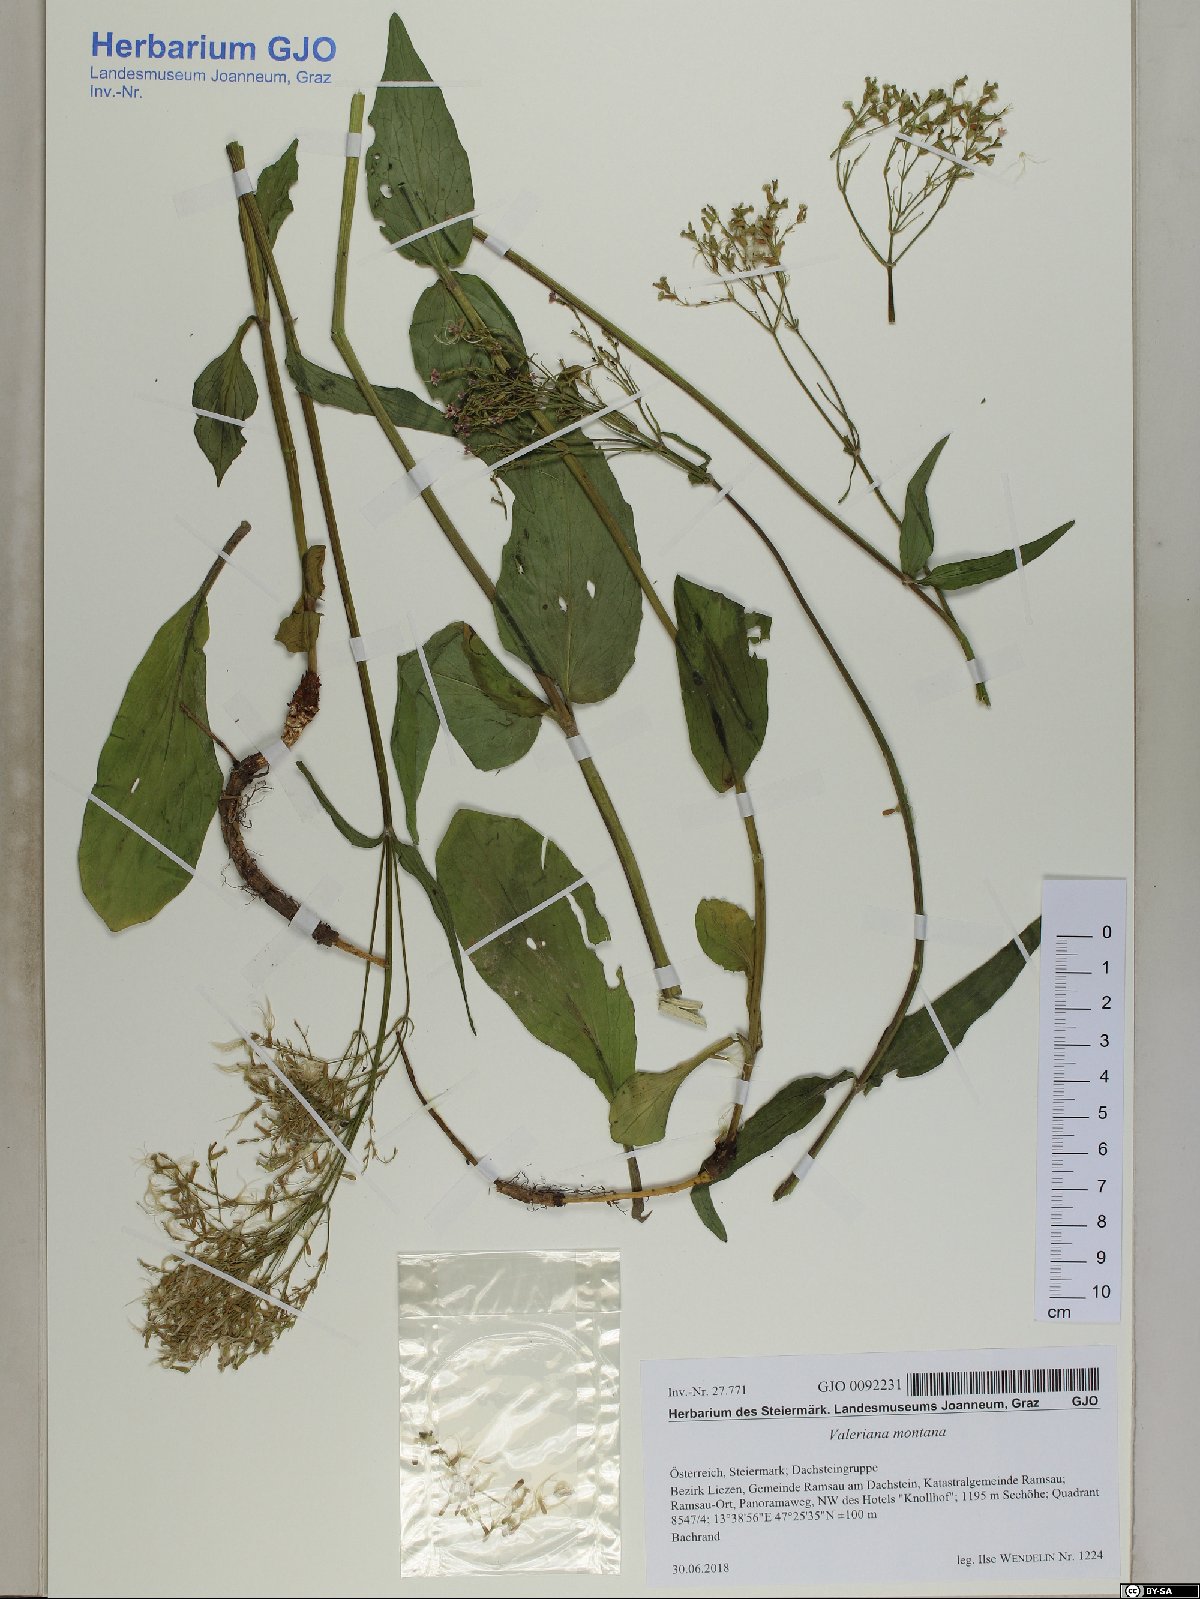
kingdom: Plantae
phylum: Tracheophyta
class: Magnoliopsida
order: Dipsacales
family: Caprifoliaceae
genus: Valeriana
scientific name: Valeriana montana
